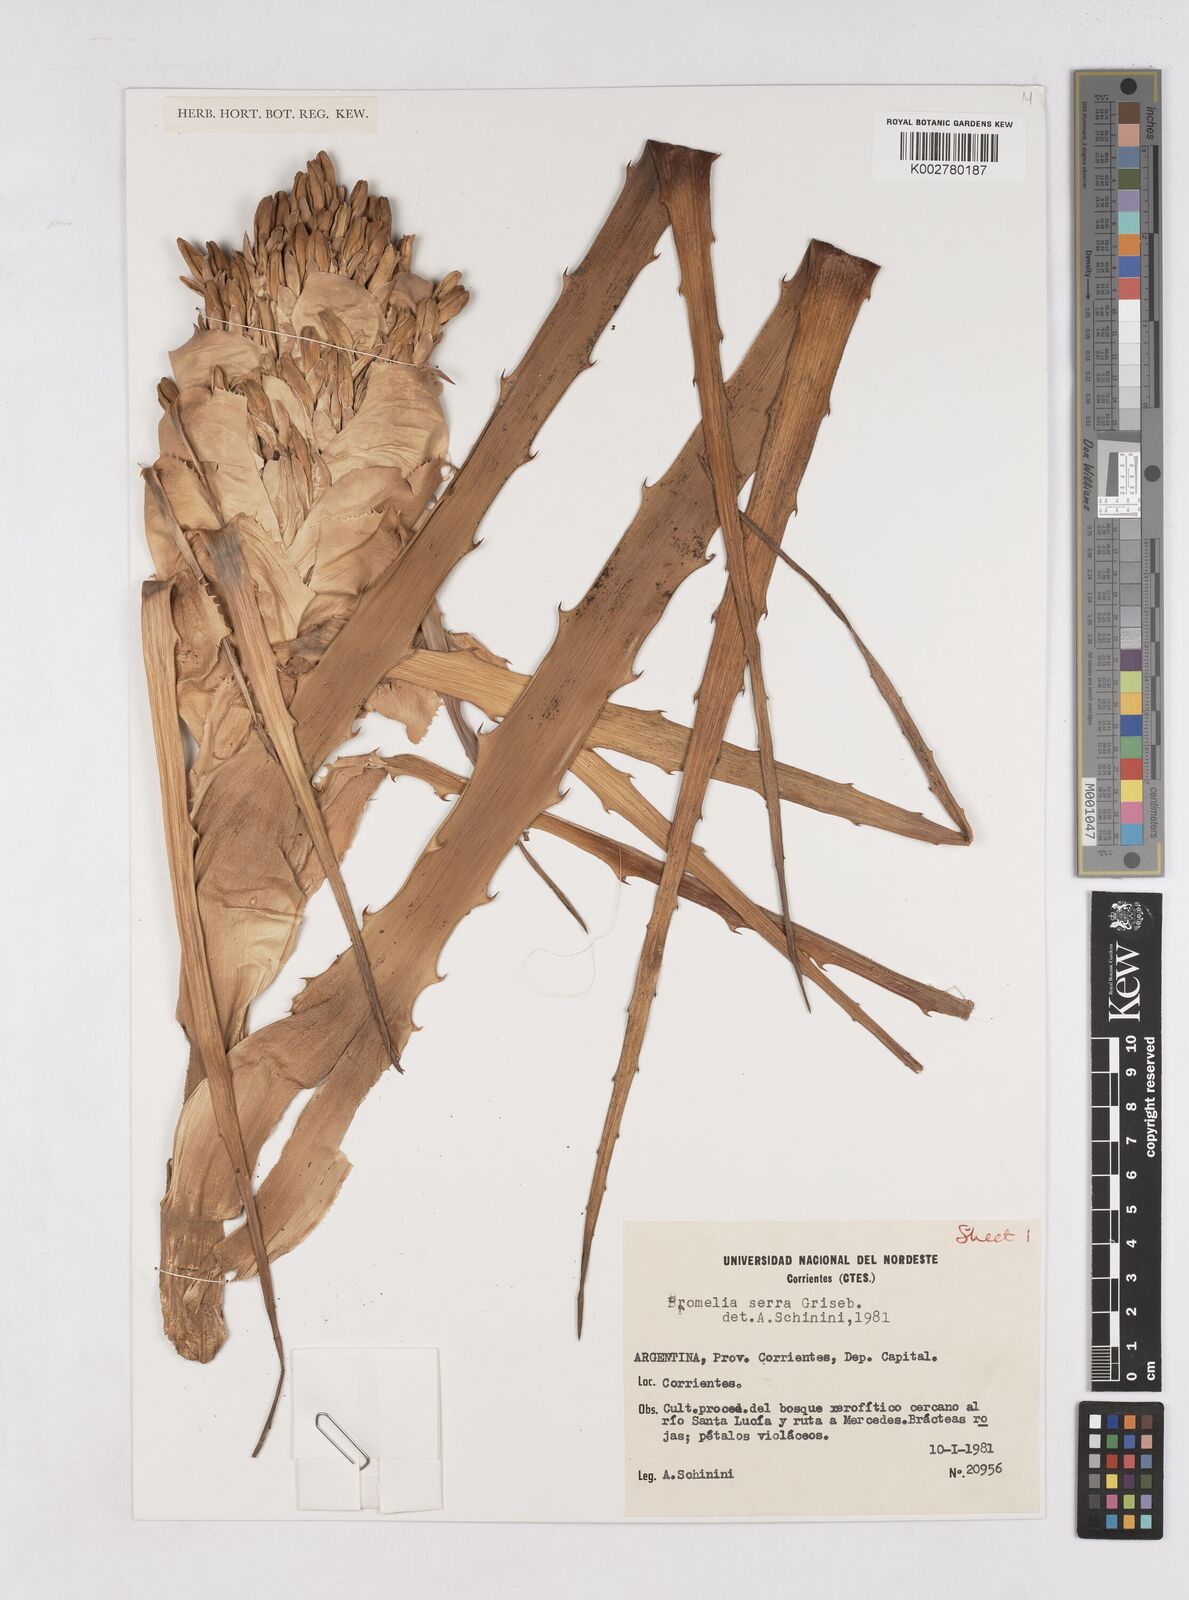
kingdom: Plantae
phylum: Tracheophyta
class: Liliopsida
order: Poales
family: Bromeliaceae
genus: Bromelia
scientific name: Bromelia serra
